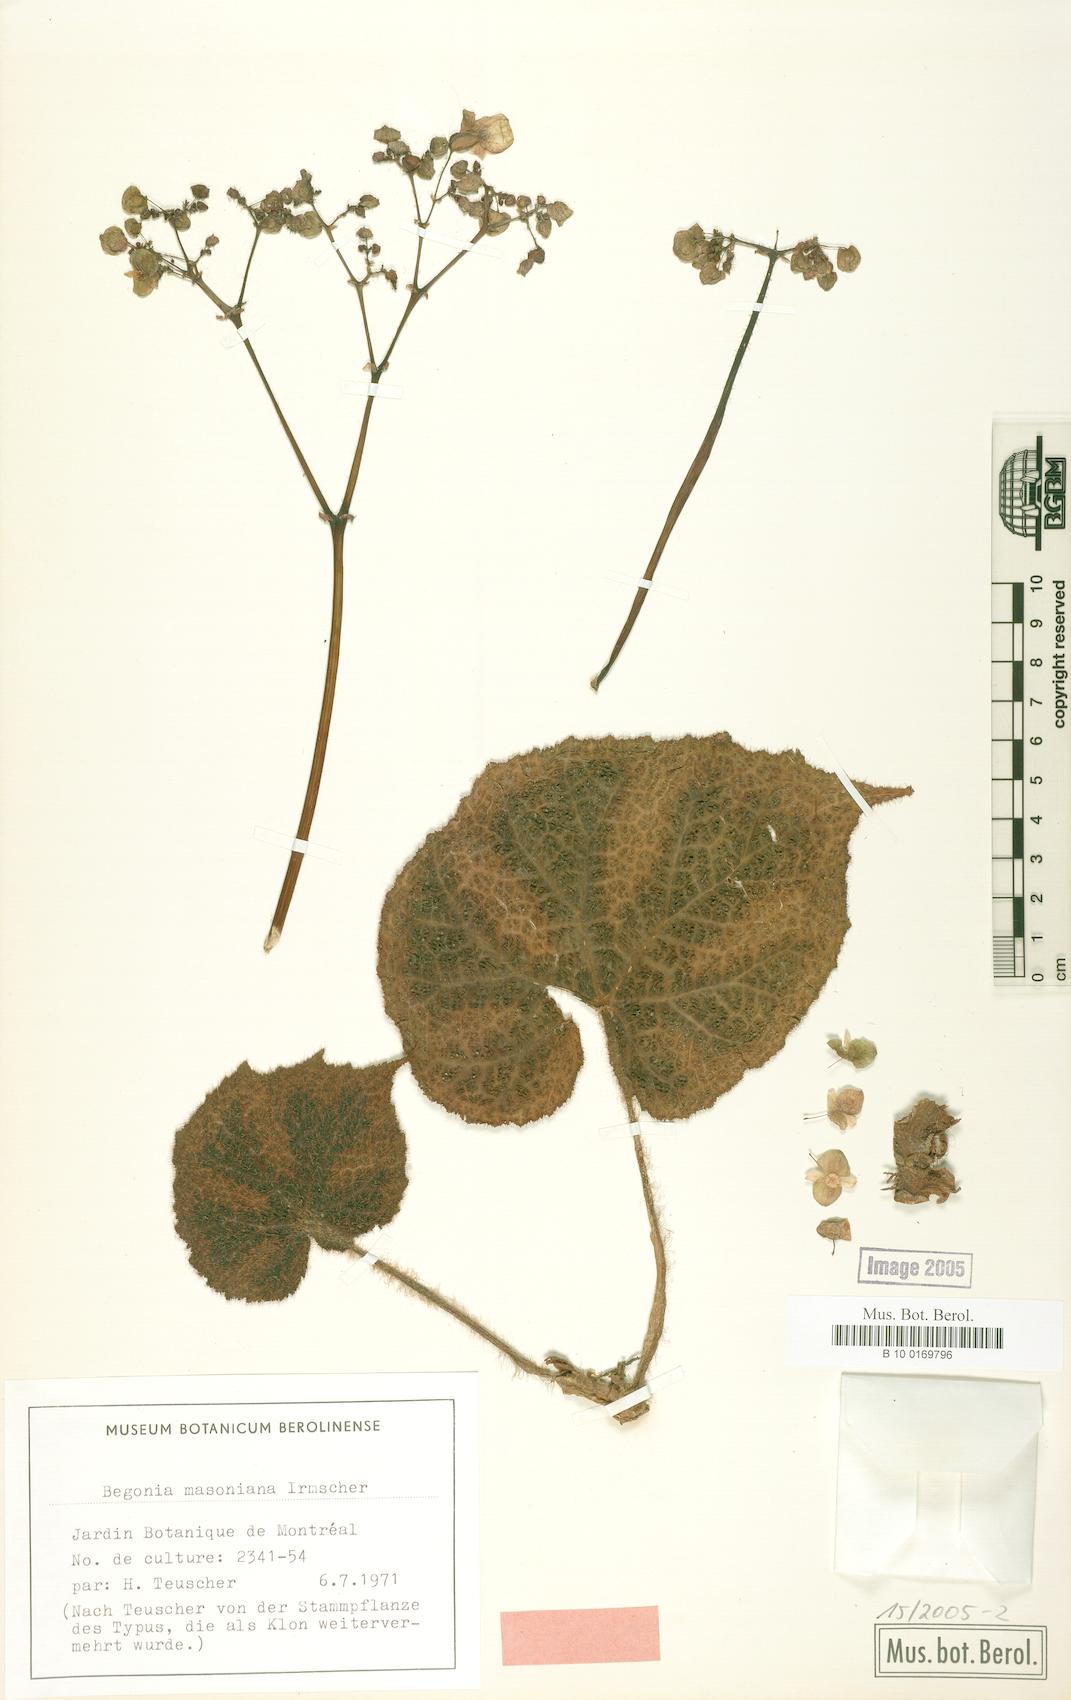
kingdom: Plantae
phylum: Tracheophyta
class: Magnoliopsida
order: Cucurbitales
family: Begoniaceae
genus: Begonia
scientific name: Begonia masoniana
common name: Iron-cross begonia
